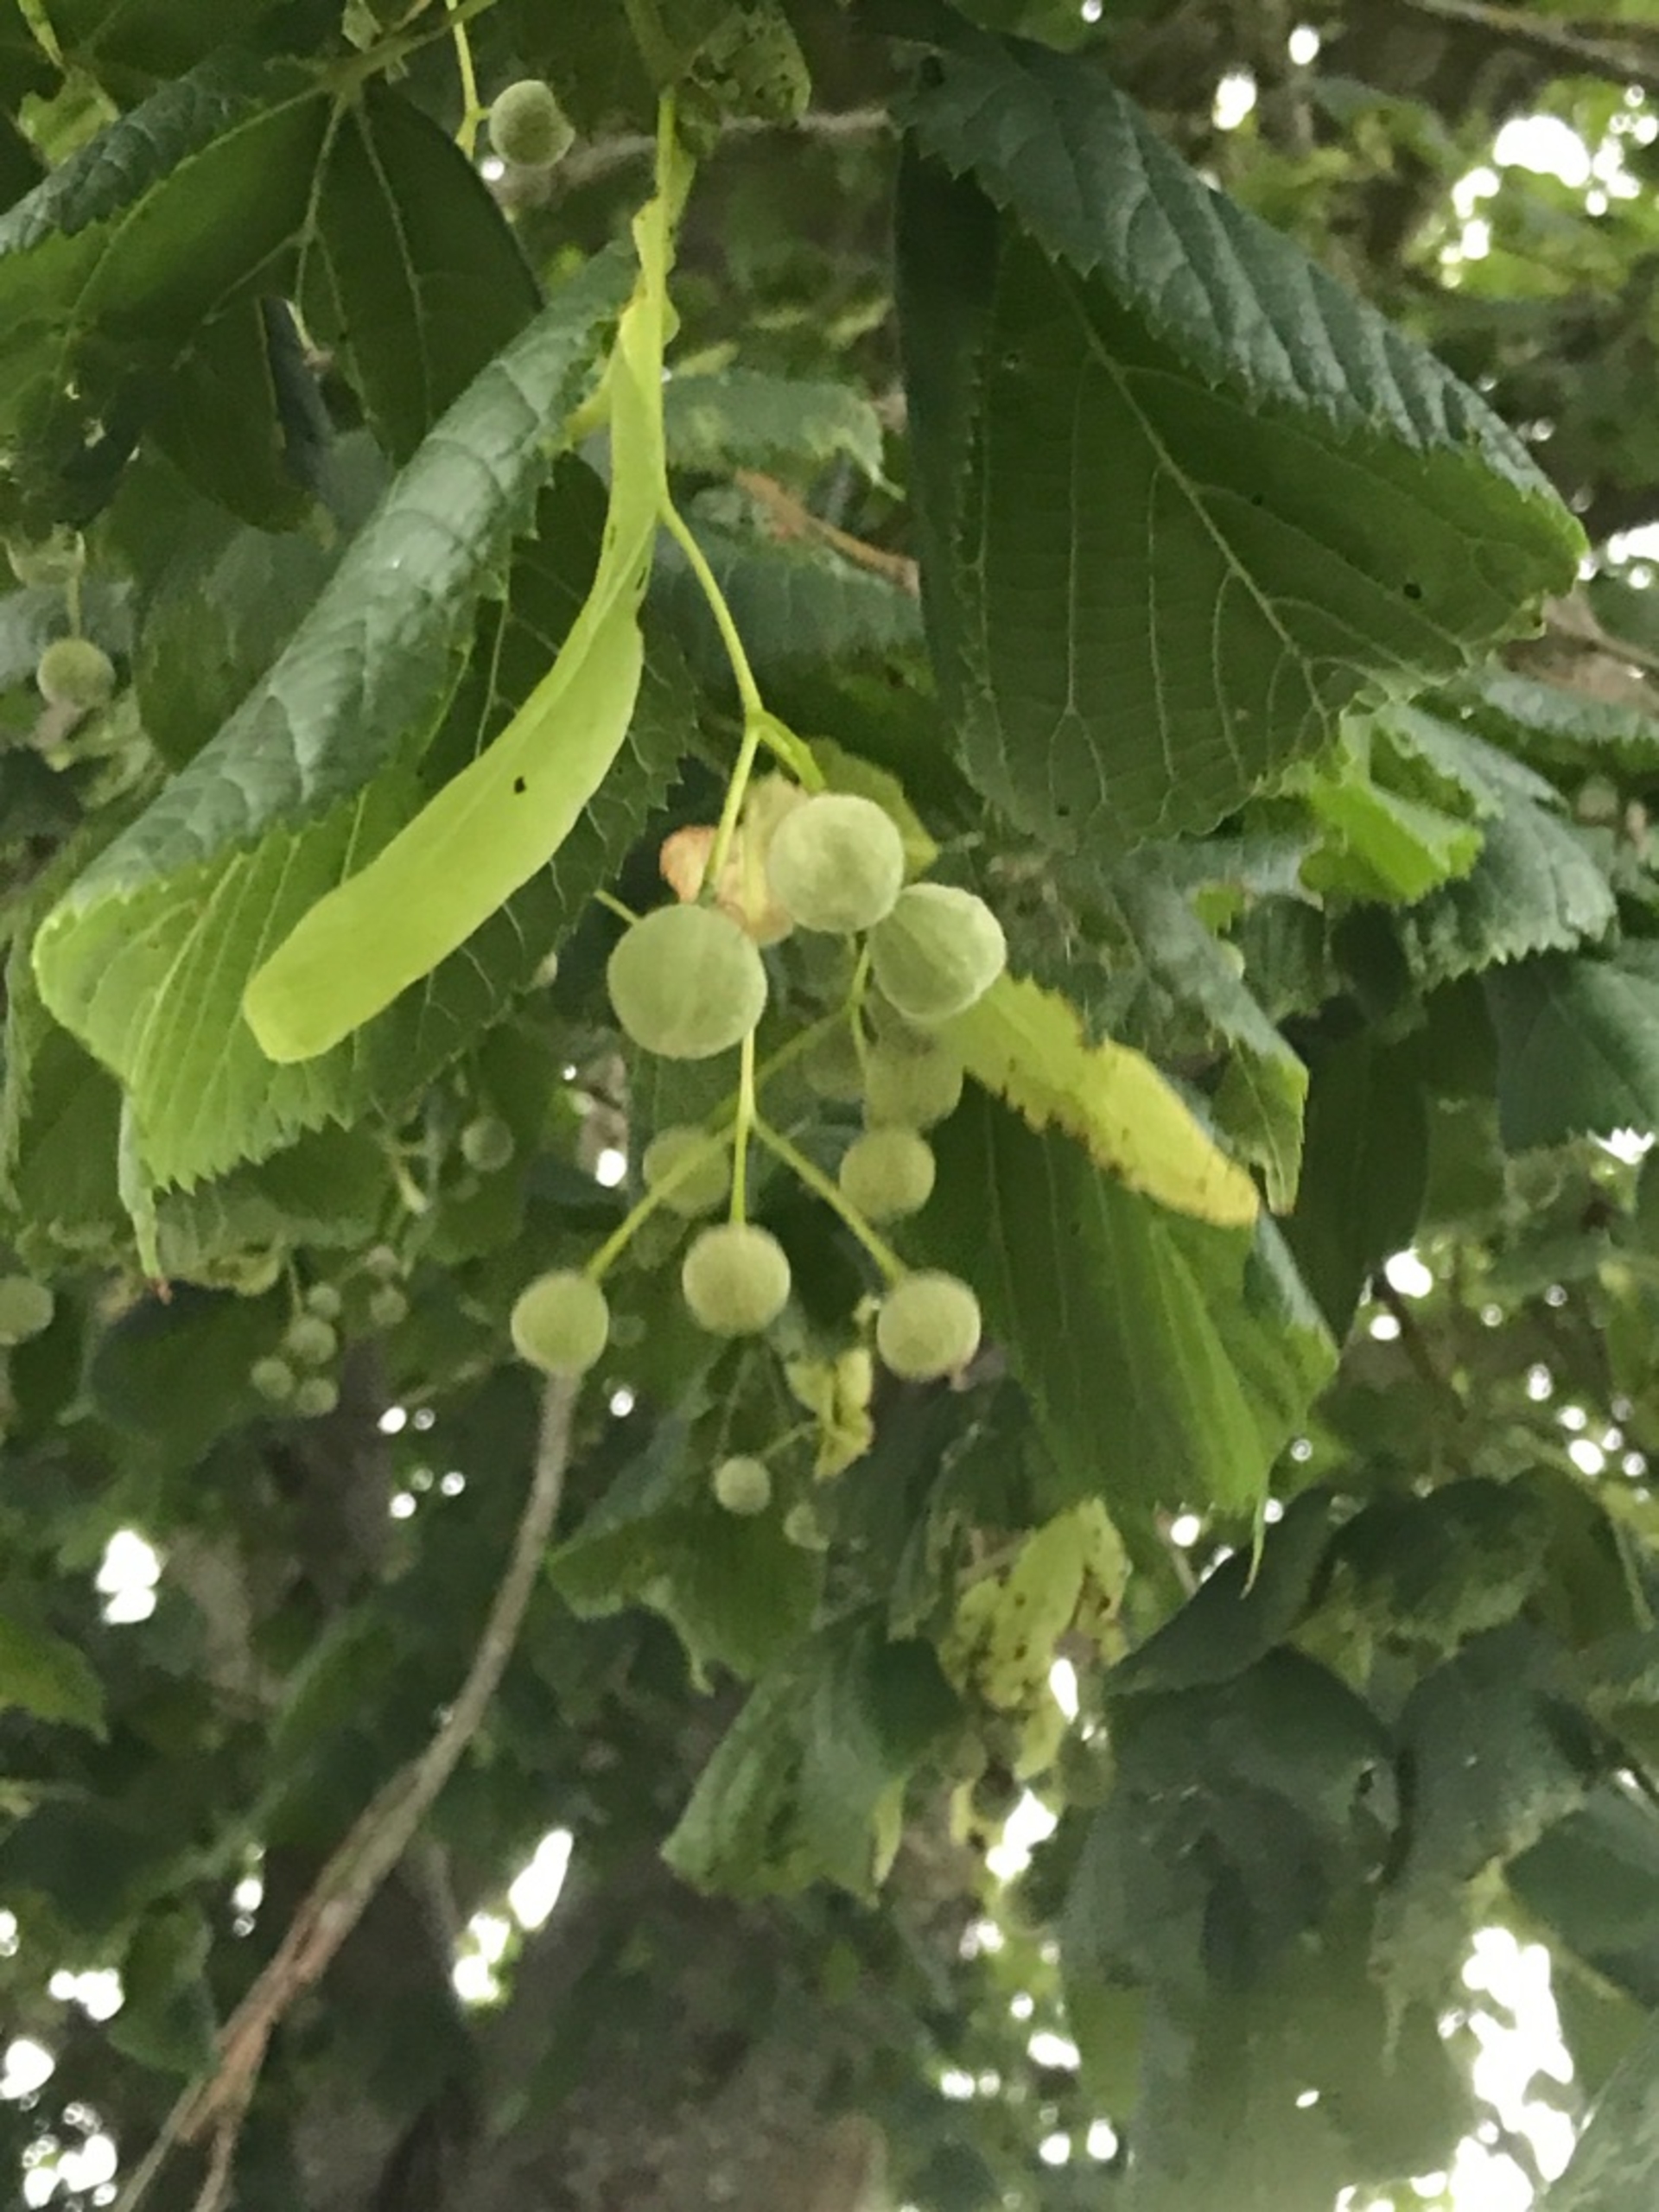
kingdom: Plantae
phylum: Tracheophyta
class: Magnoliopsida
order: Malvales
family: Malvaceae
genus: Tilia
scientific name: Tilia platyphyllos
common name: Storbladet lind
